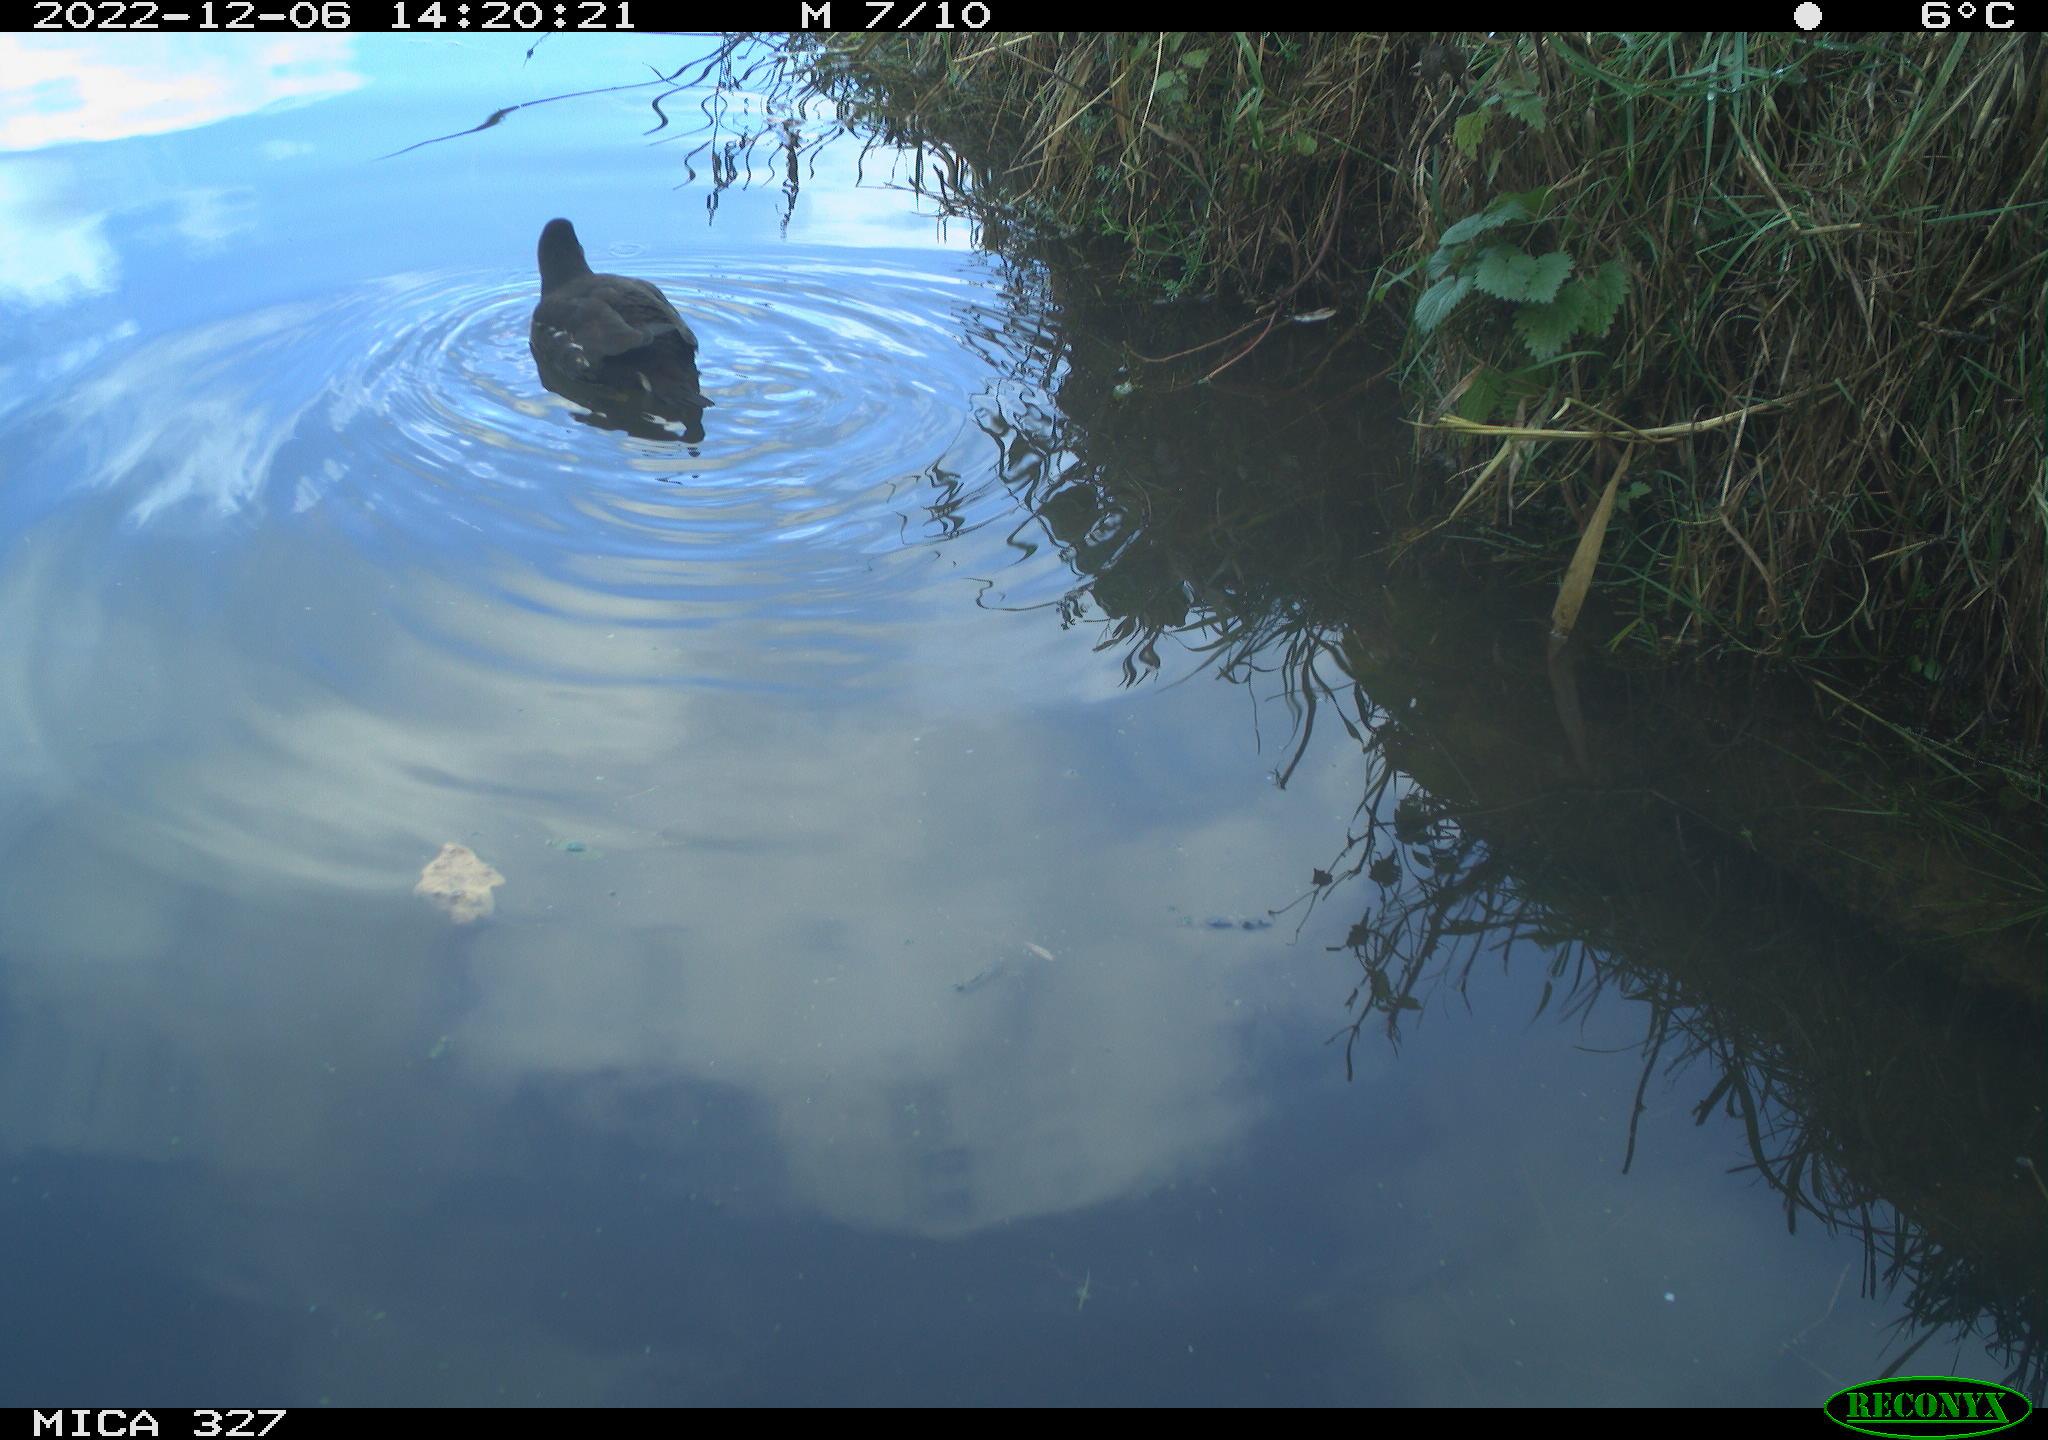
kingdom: Animalia
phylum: Chordata
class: Aves
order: Gruiformes
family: Rallidae
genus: Gallinula
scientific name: Gallinula chloropus
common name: Common moorhen
